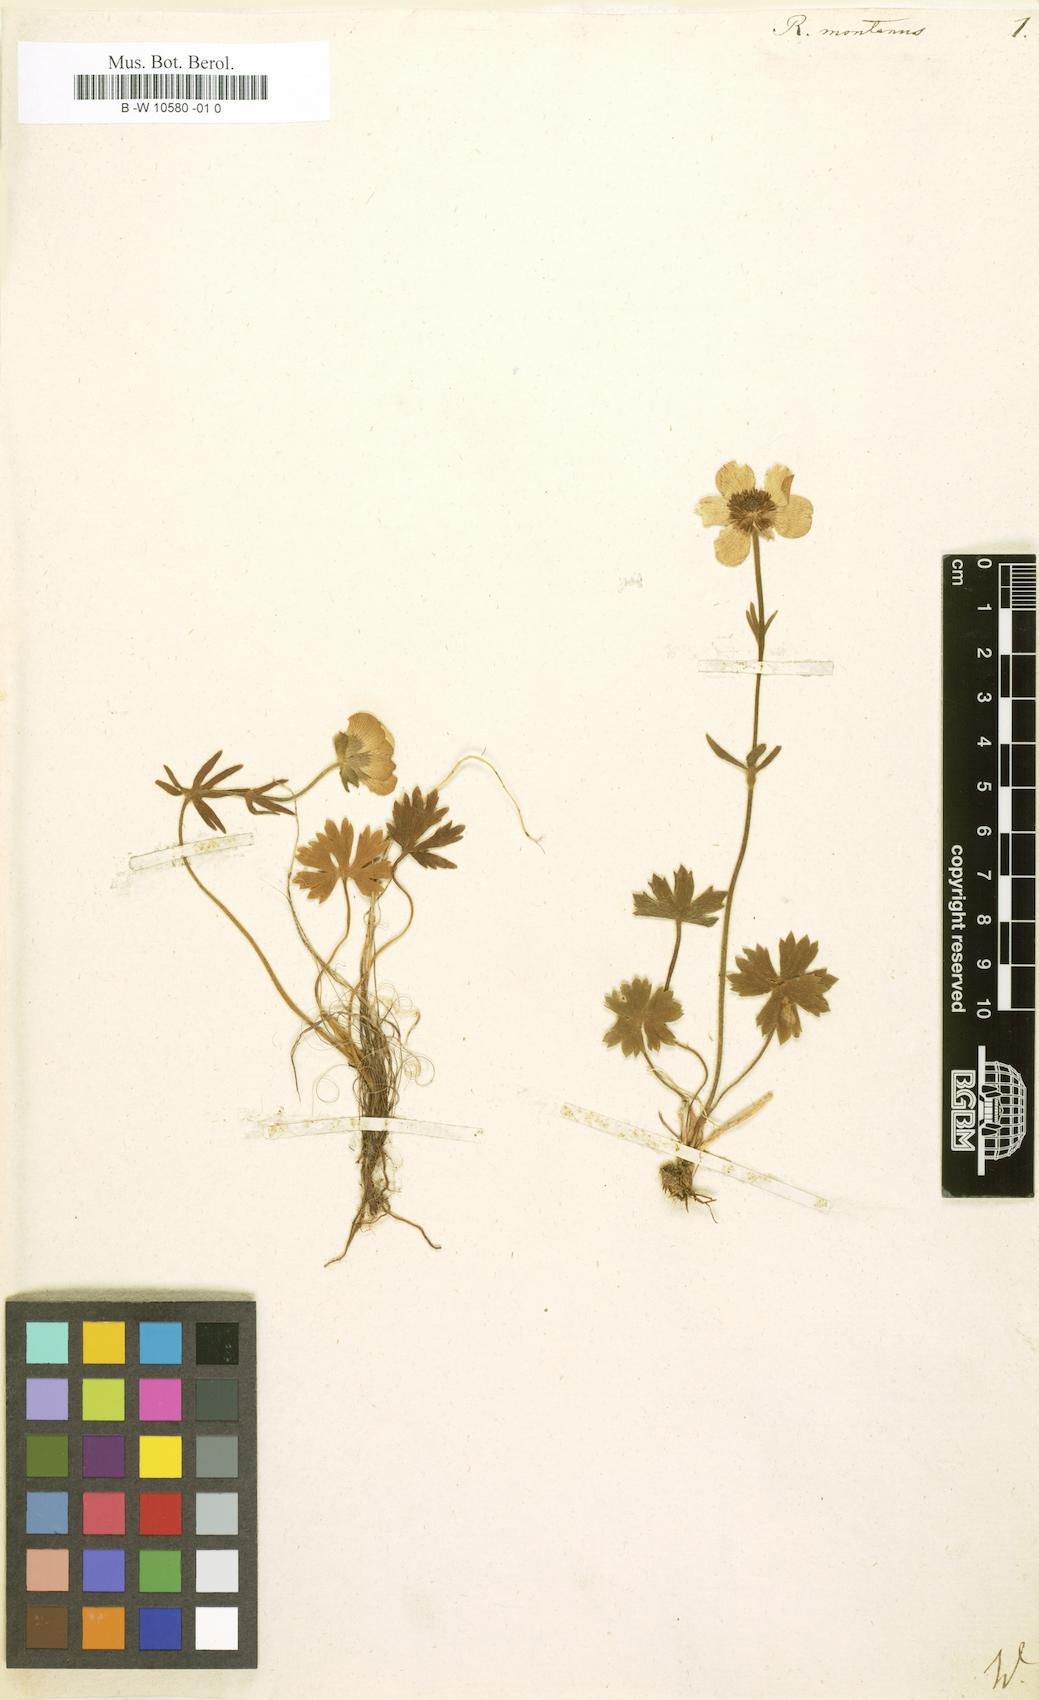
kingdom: Plantae
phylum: Tracheophyta
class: Magnoliopsida
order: Ranunculales
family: Ranunculaceae
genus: Ranunculus
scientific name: Ranunculus montanus
